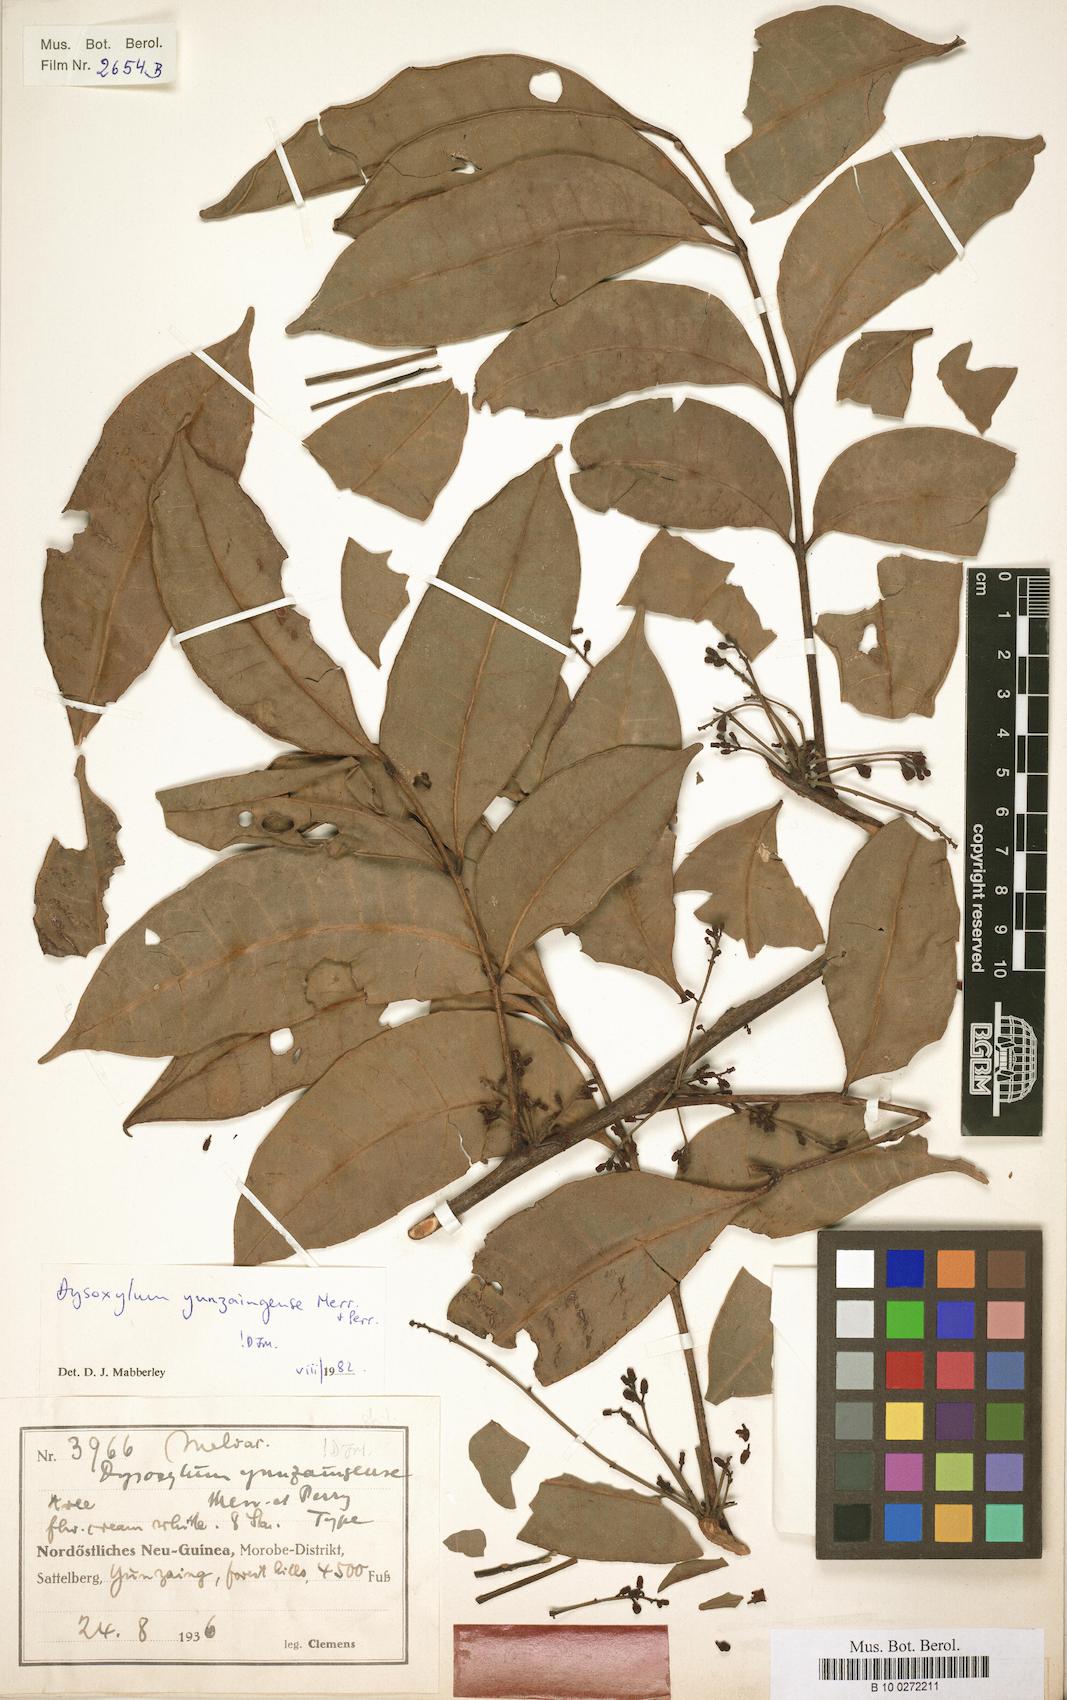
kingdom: Plantae
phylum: Tracheophyta
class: Magnoliopsida
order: Sapindales
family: Meliaceae
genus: Pseudocarapa
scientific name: Pseudocarapa yunzaingensis
